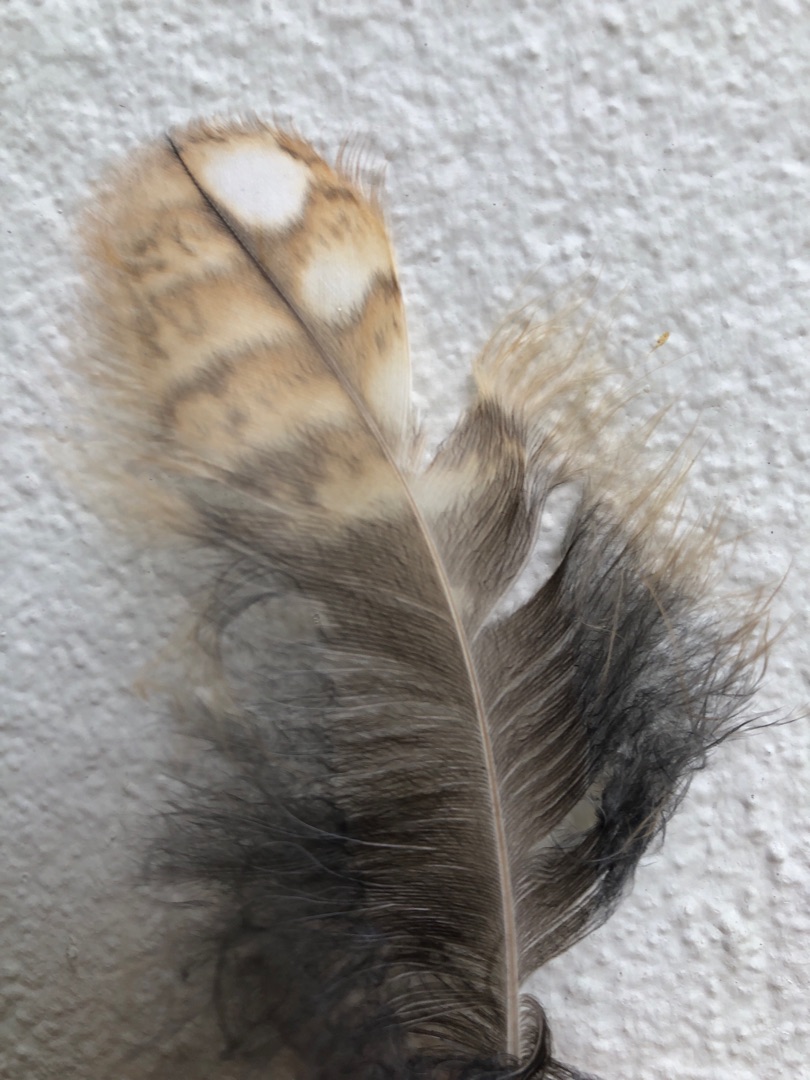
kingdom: Animalia
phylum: Chordata
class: Aves
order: Strigiformes
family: Strigidae
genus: Strix
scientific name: Strix aluco
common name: Natugle
